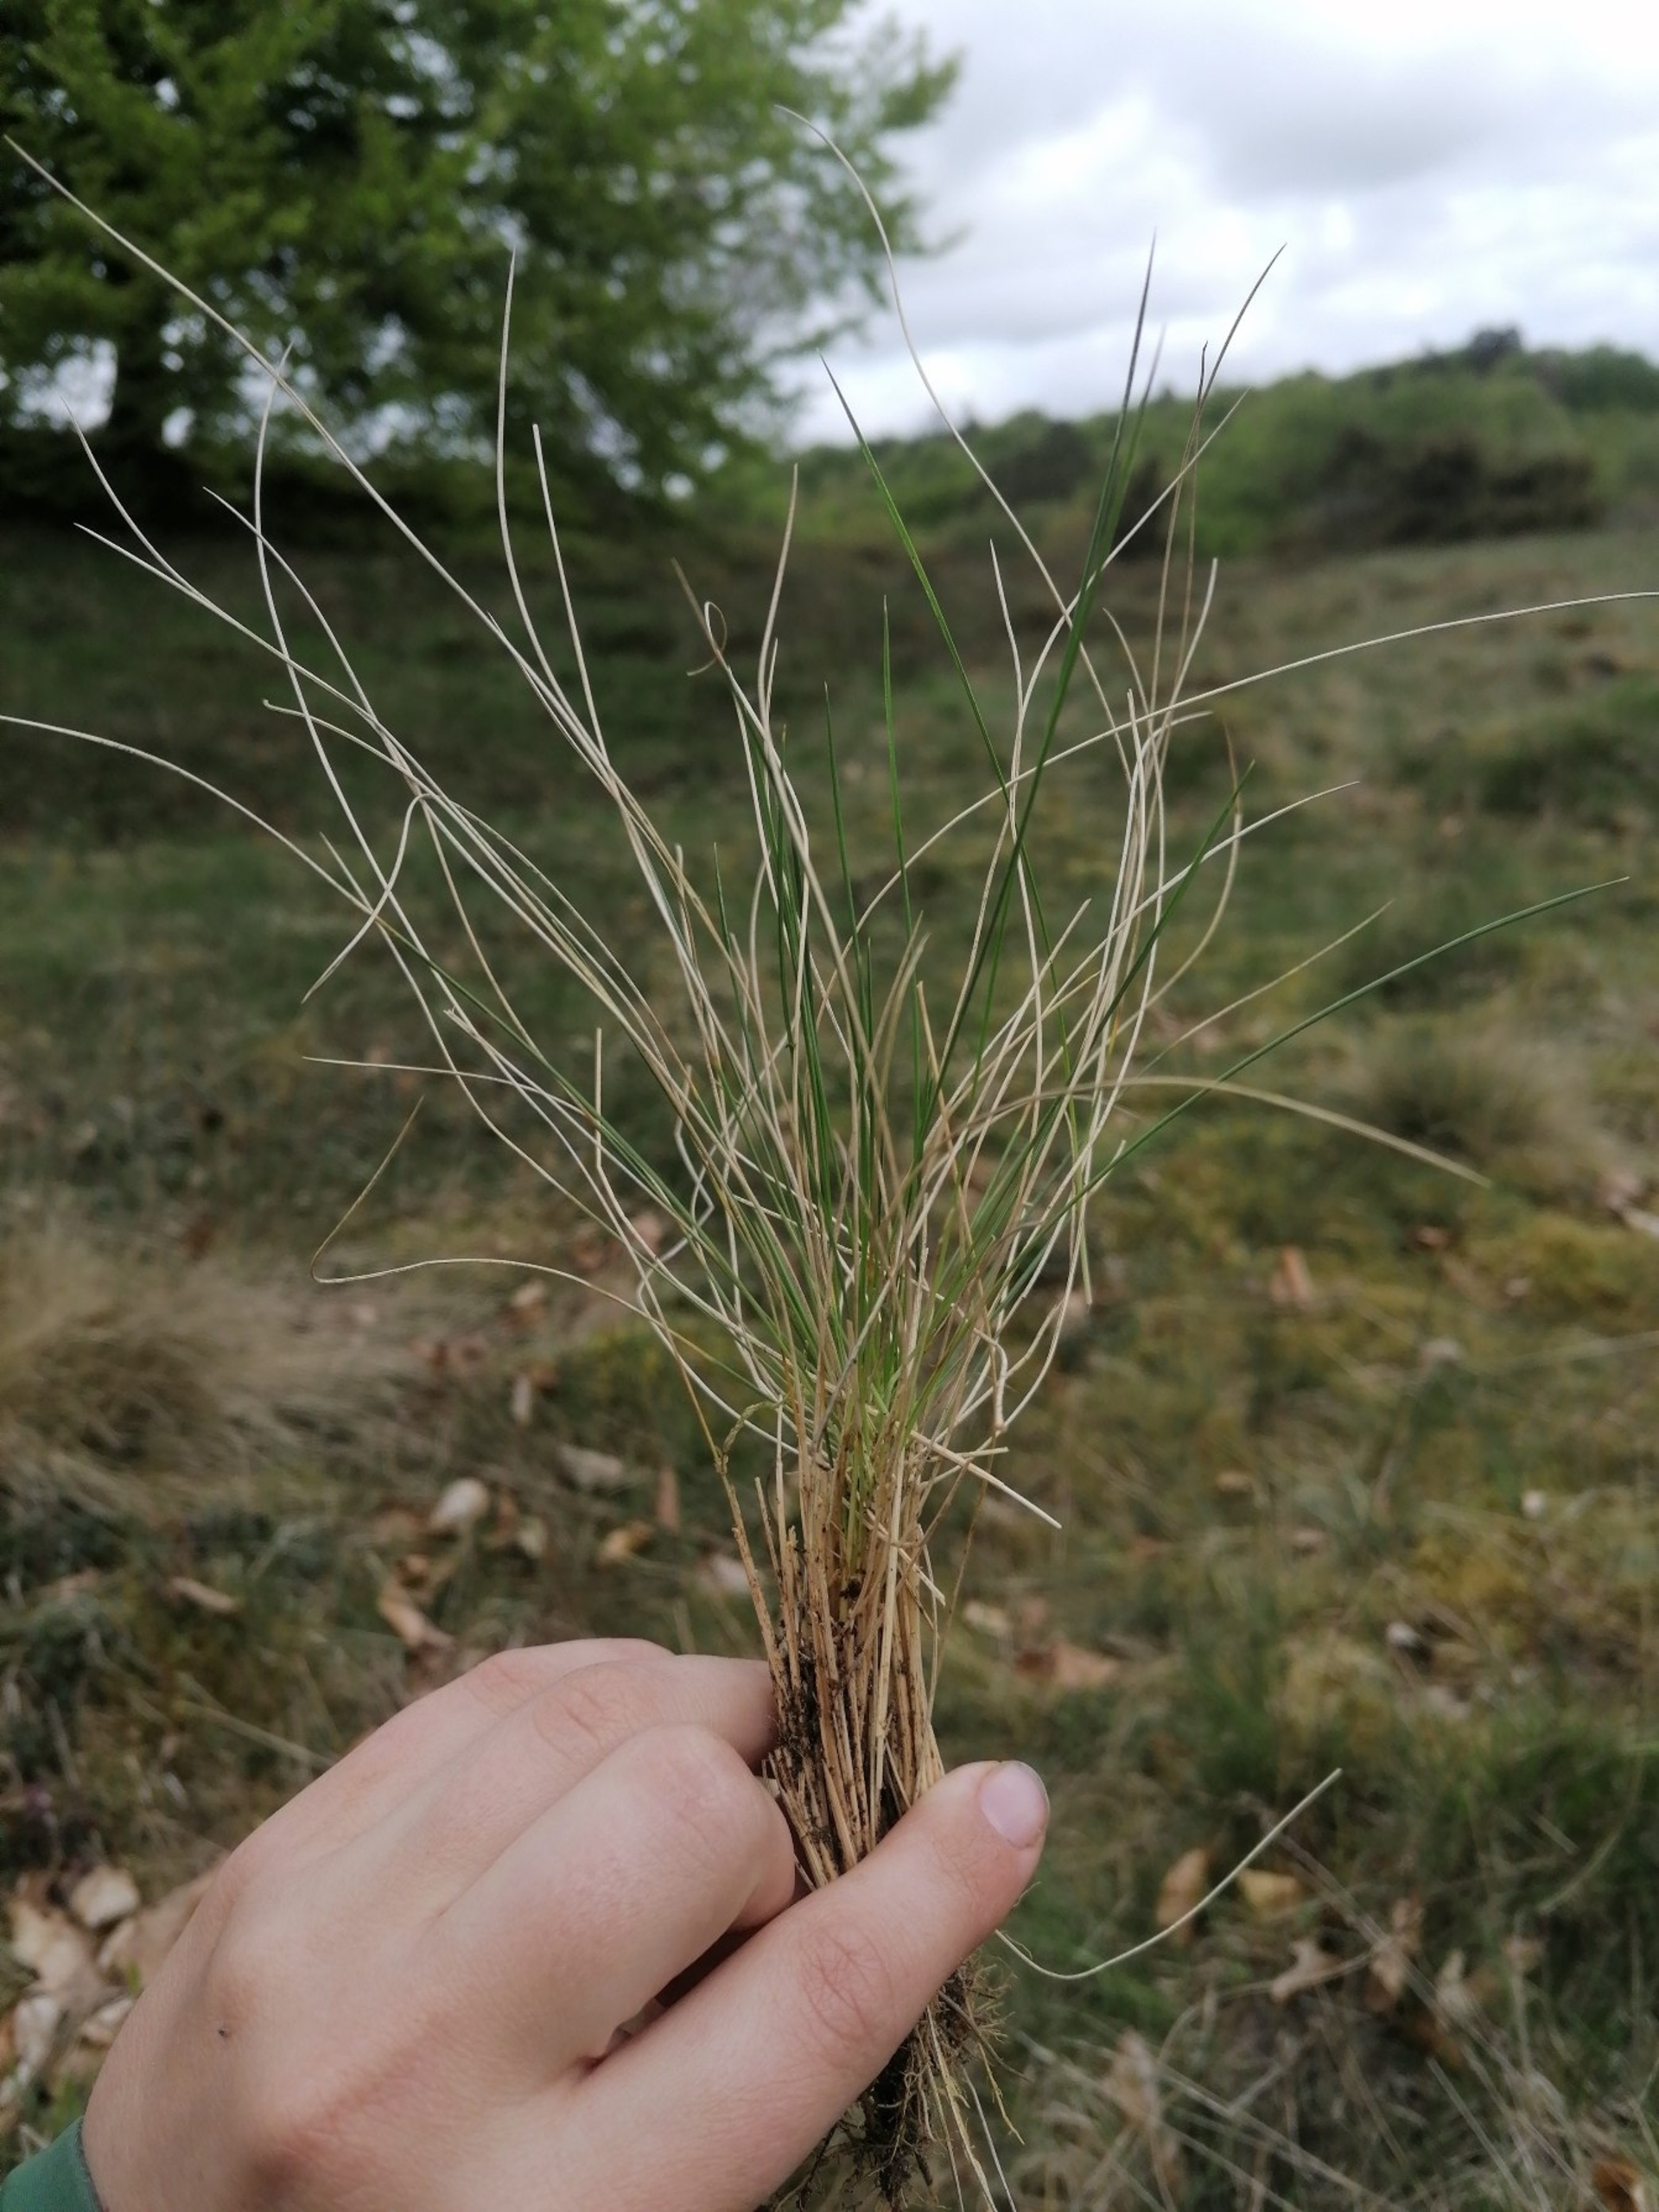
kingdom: Plantae
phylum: Tracheophyta
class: Liliopsida
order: Poales
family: Poaceae
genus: Nardus
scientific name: Nardus stricta
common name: Katteskæg
